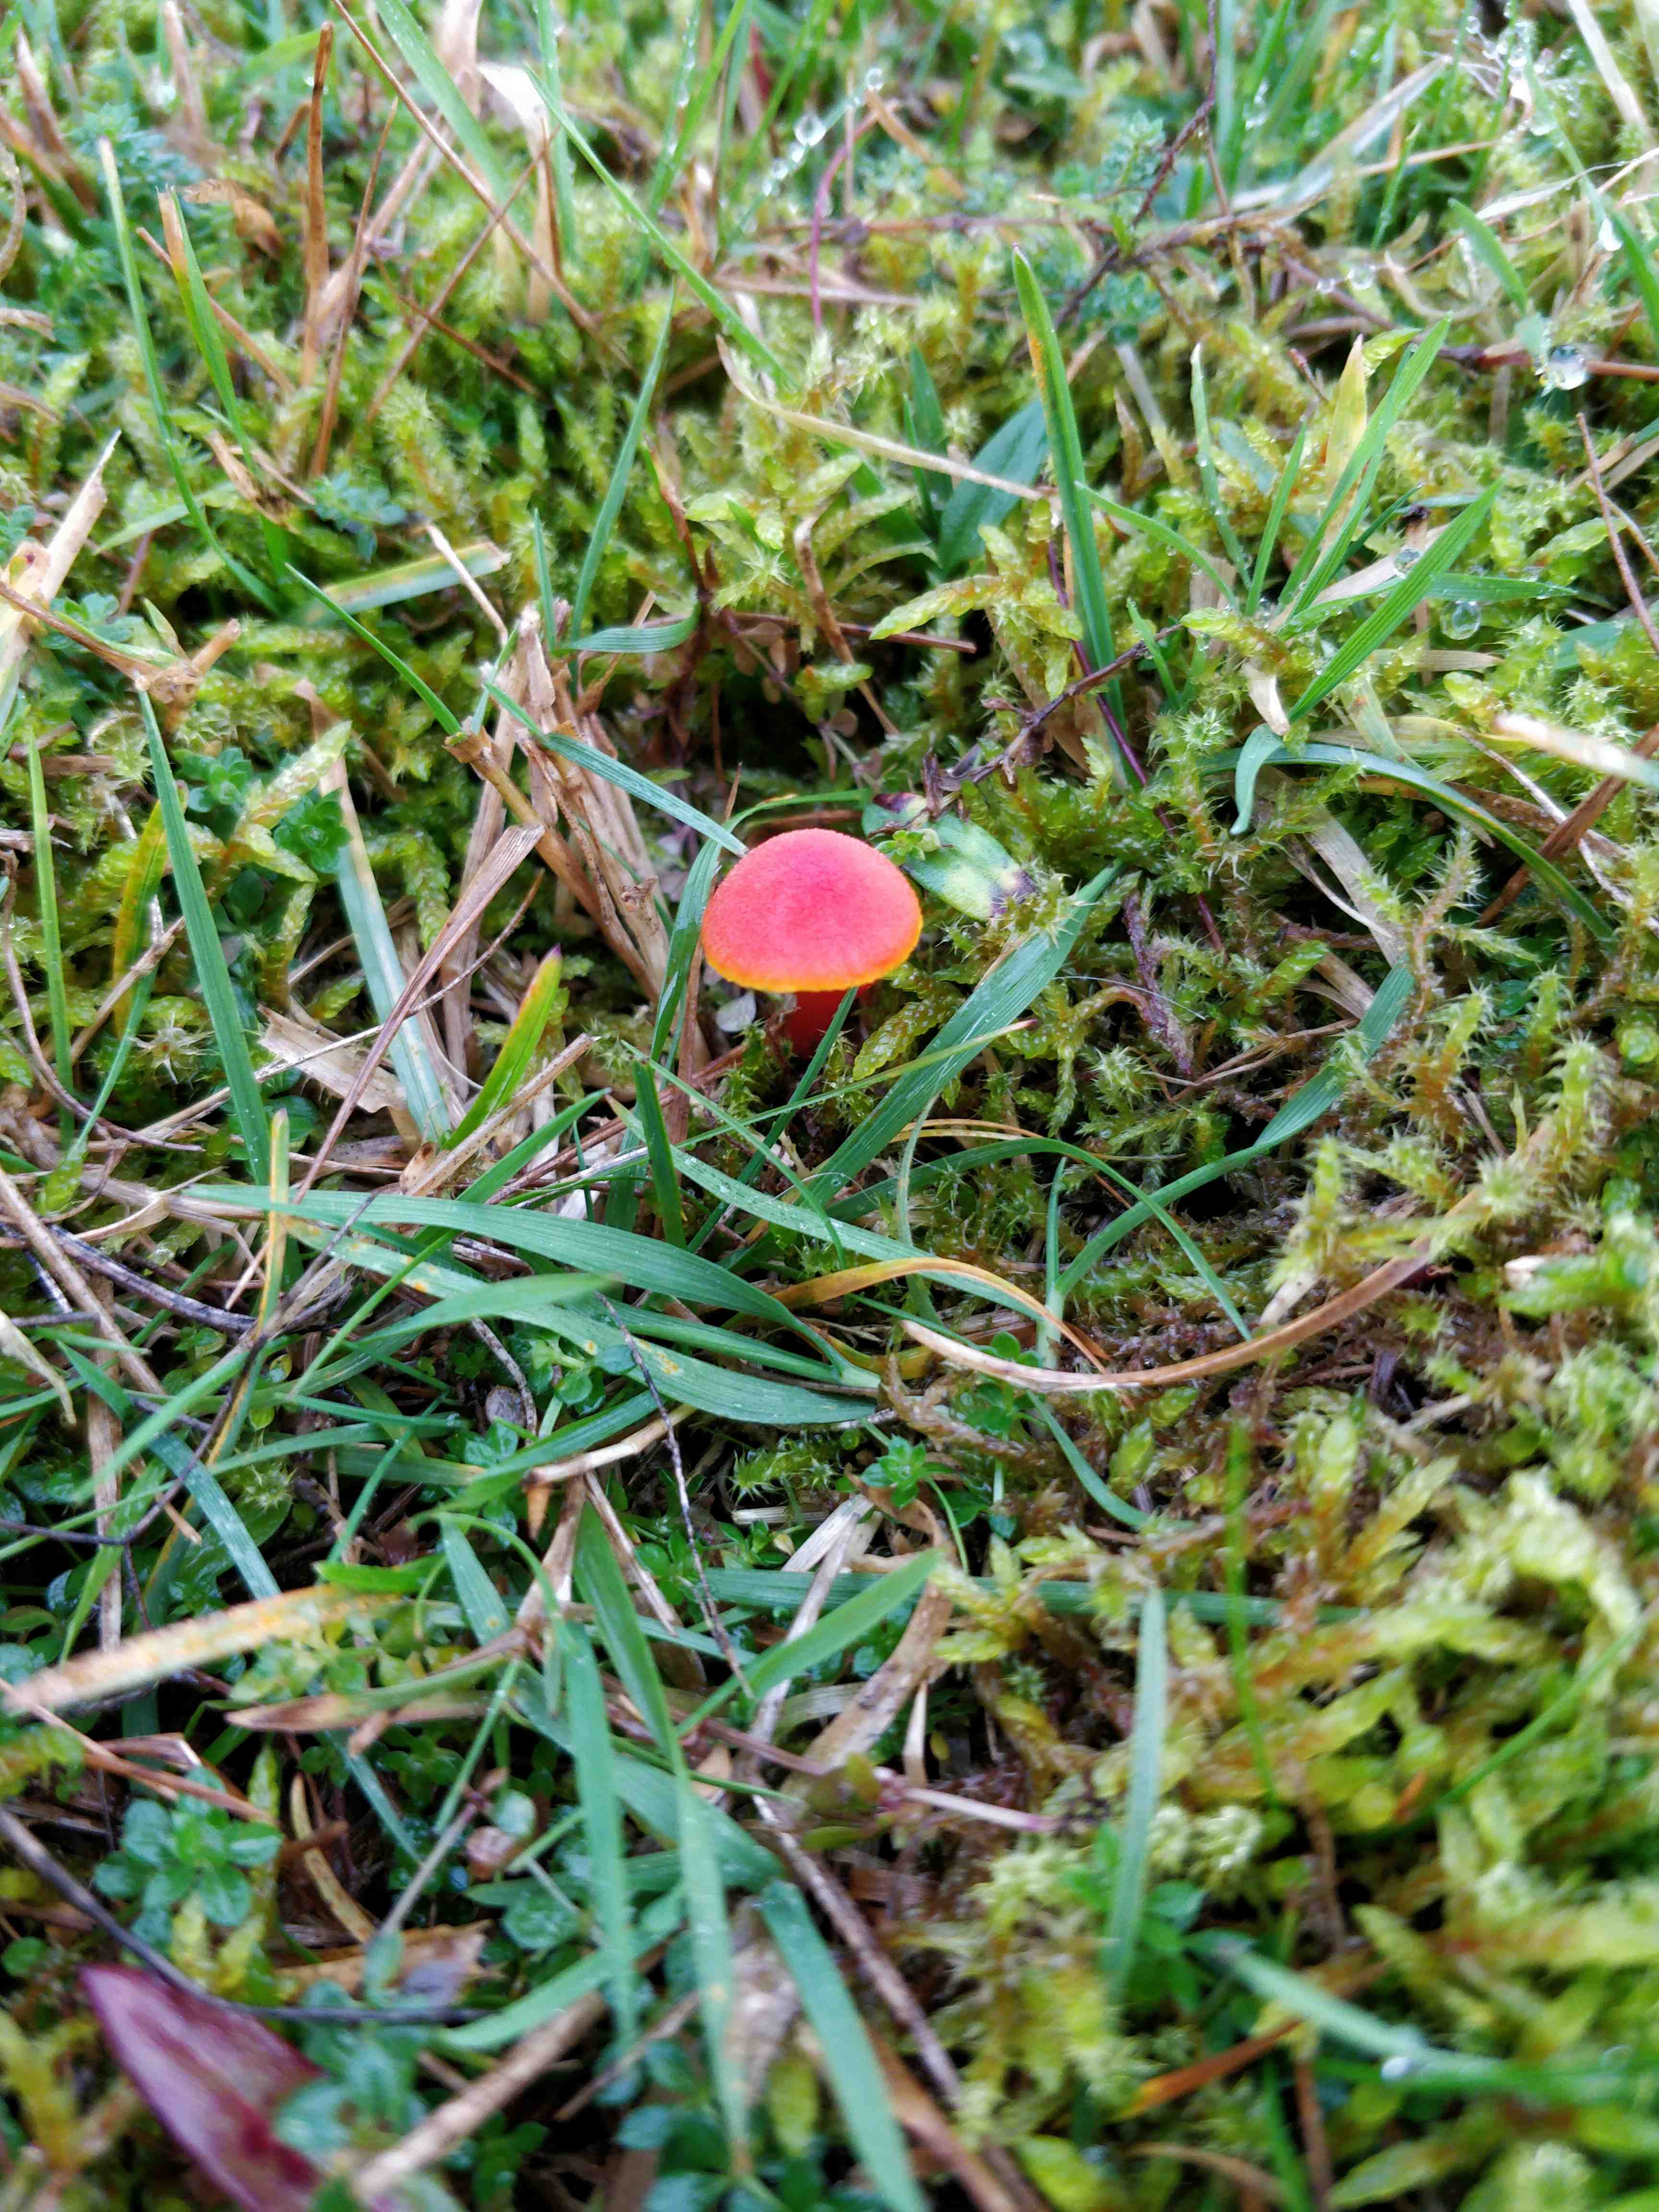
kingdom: Fungi
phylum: Basidiomycota
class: Agaricomycetes
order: Agaricales
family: Hygrophoraceae
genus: Hygrocybe
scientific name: Hygrocybe miniata
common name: mønje-vokshat
